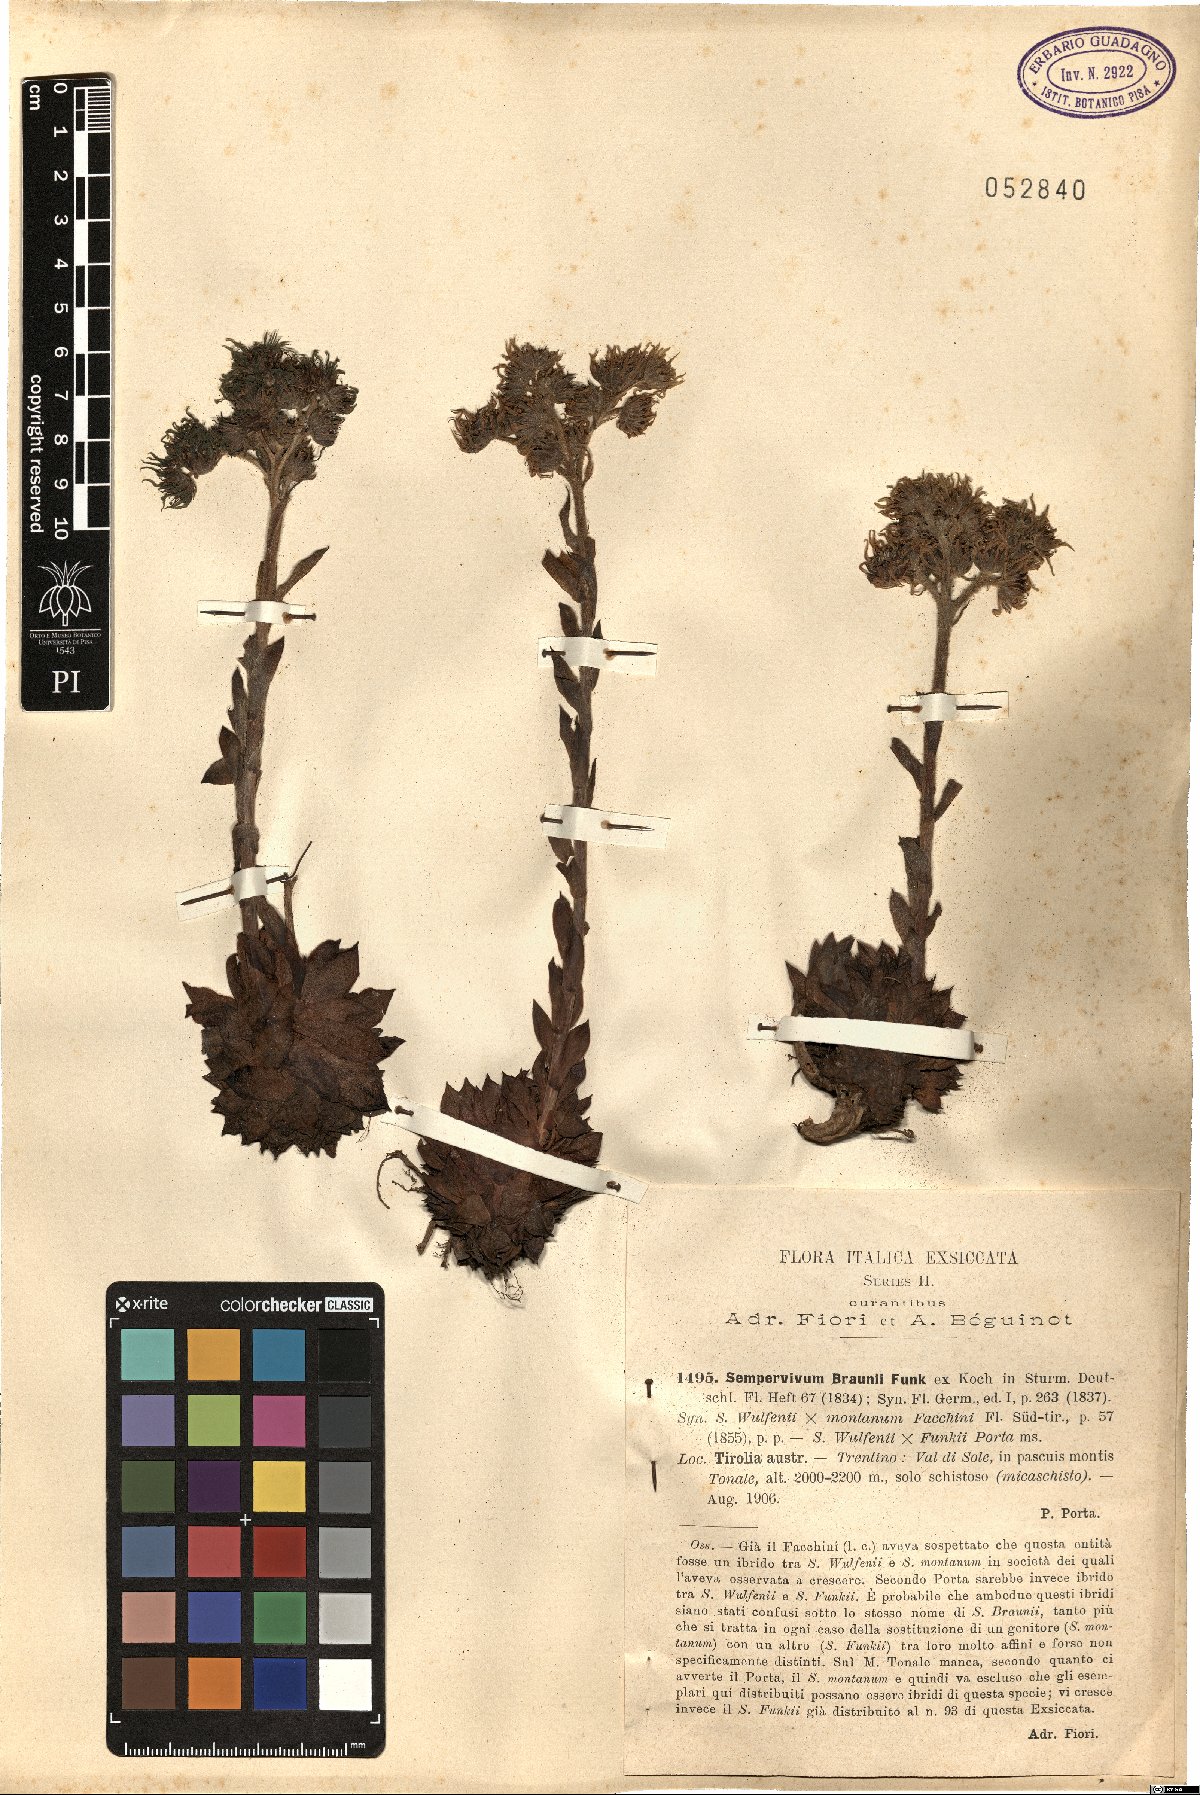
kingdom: Plantae
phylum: Tracheophyta
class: Magnoliopsida
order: Saxifragales
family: Crassulaceae
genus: Sempervivum
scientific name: Sempervivum montanum
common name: Mountain house-leek
